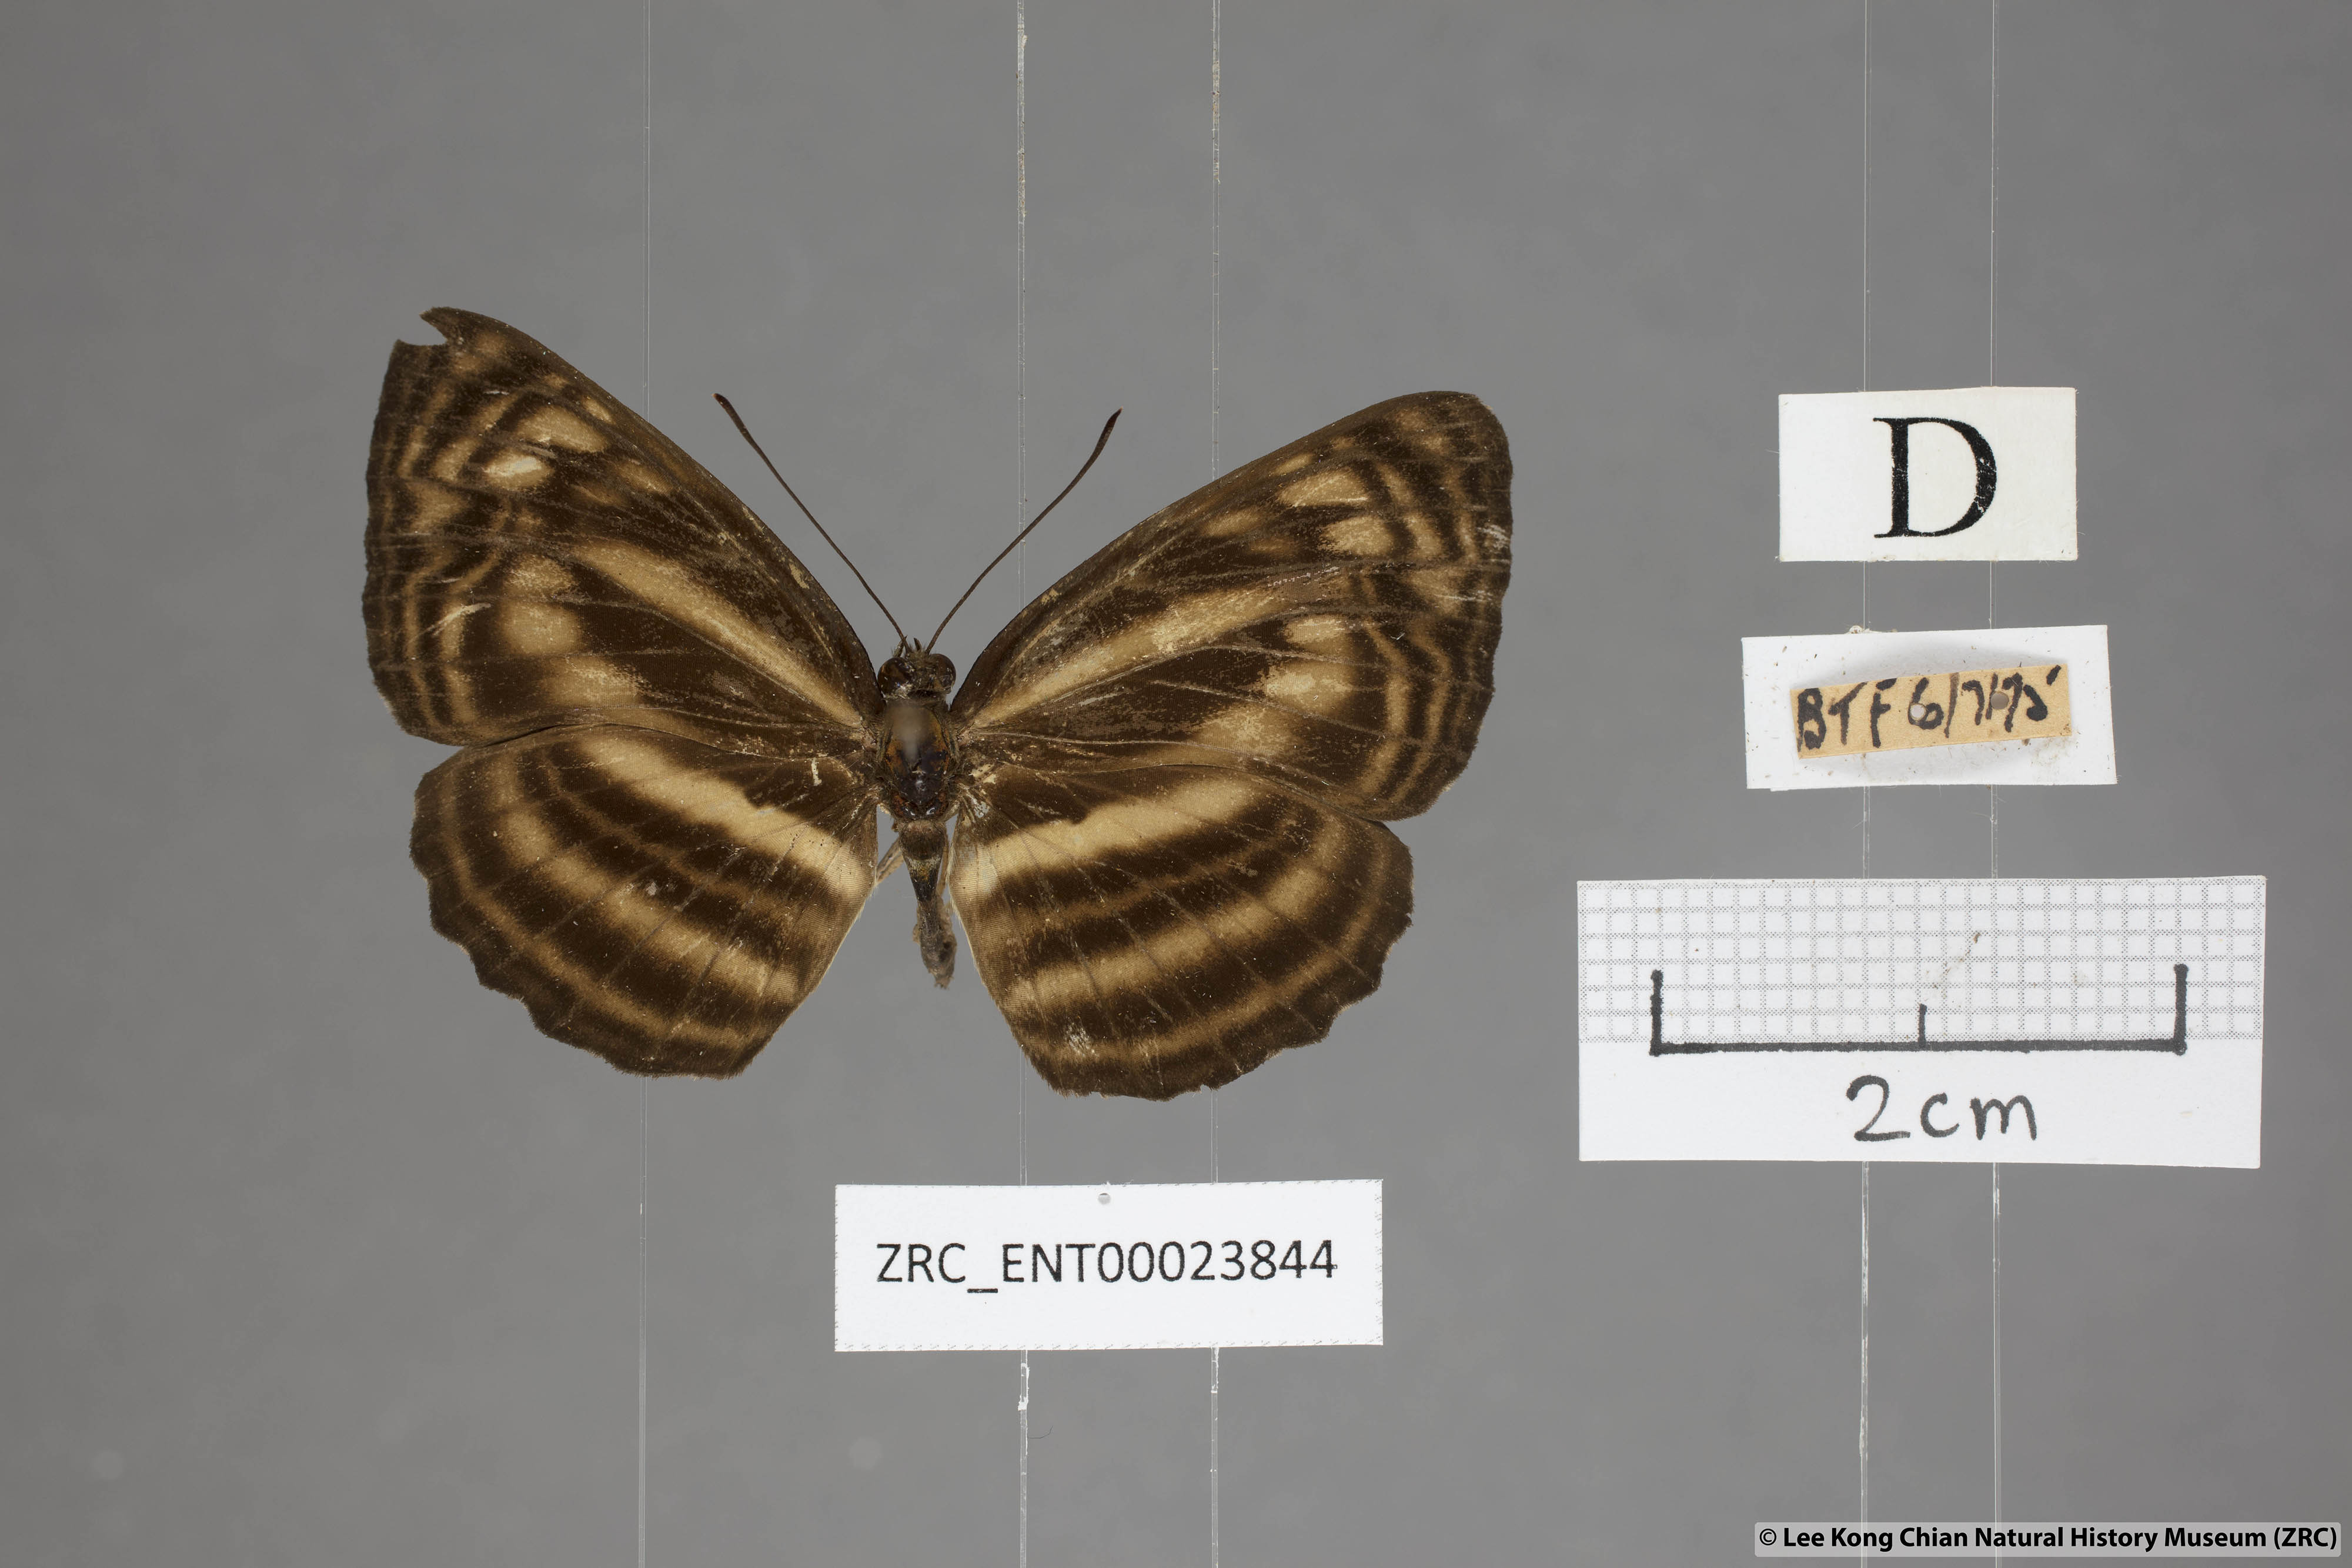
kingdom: Animalia
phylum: Arthropoda
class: Insecta
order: Lepidoptera
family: Nymphalidae
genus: Lasippa
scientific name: Lasippa monata
